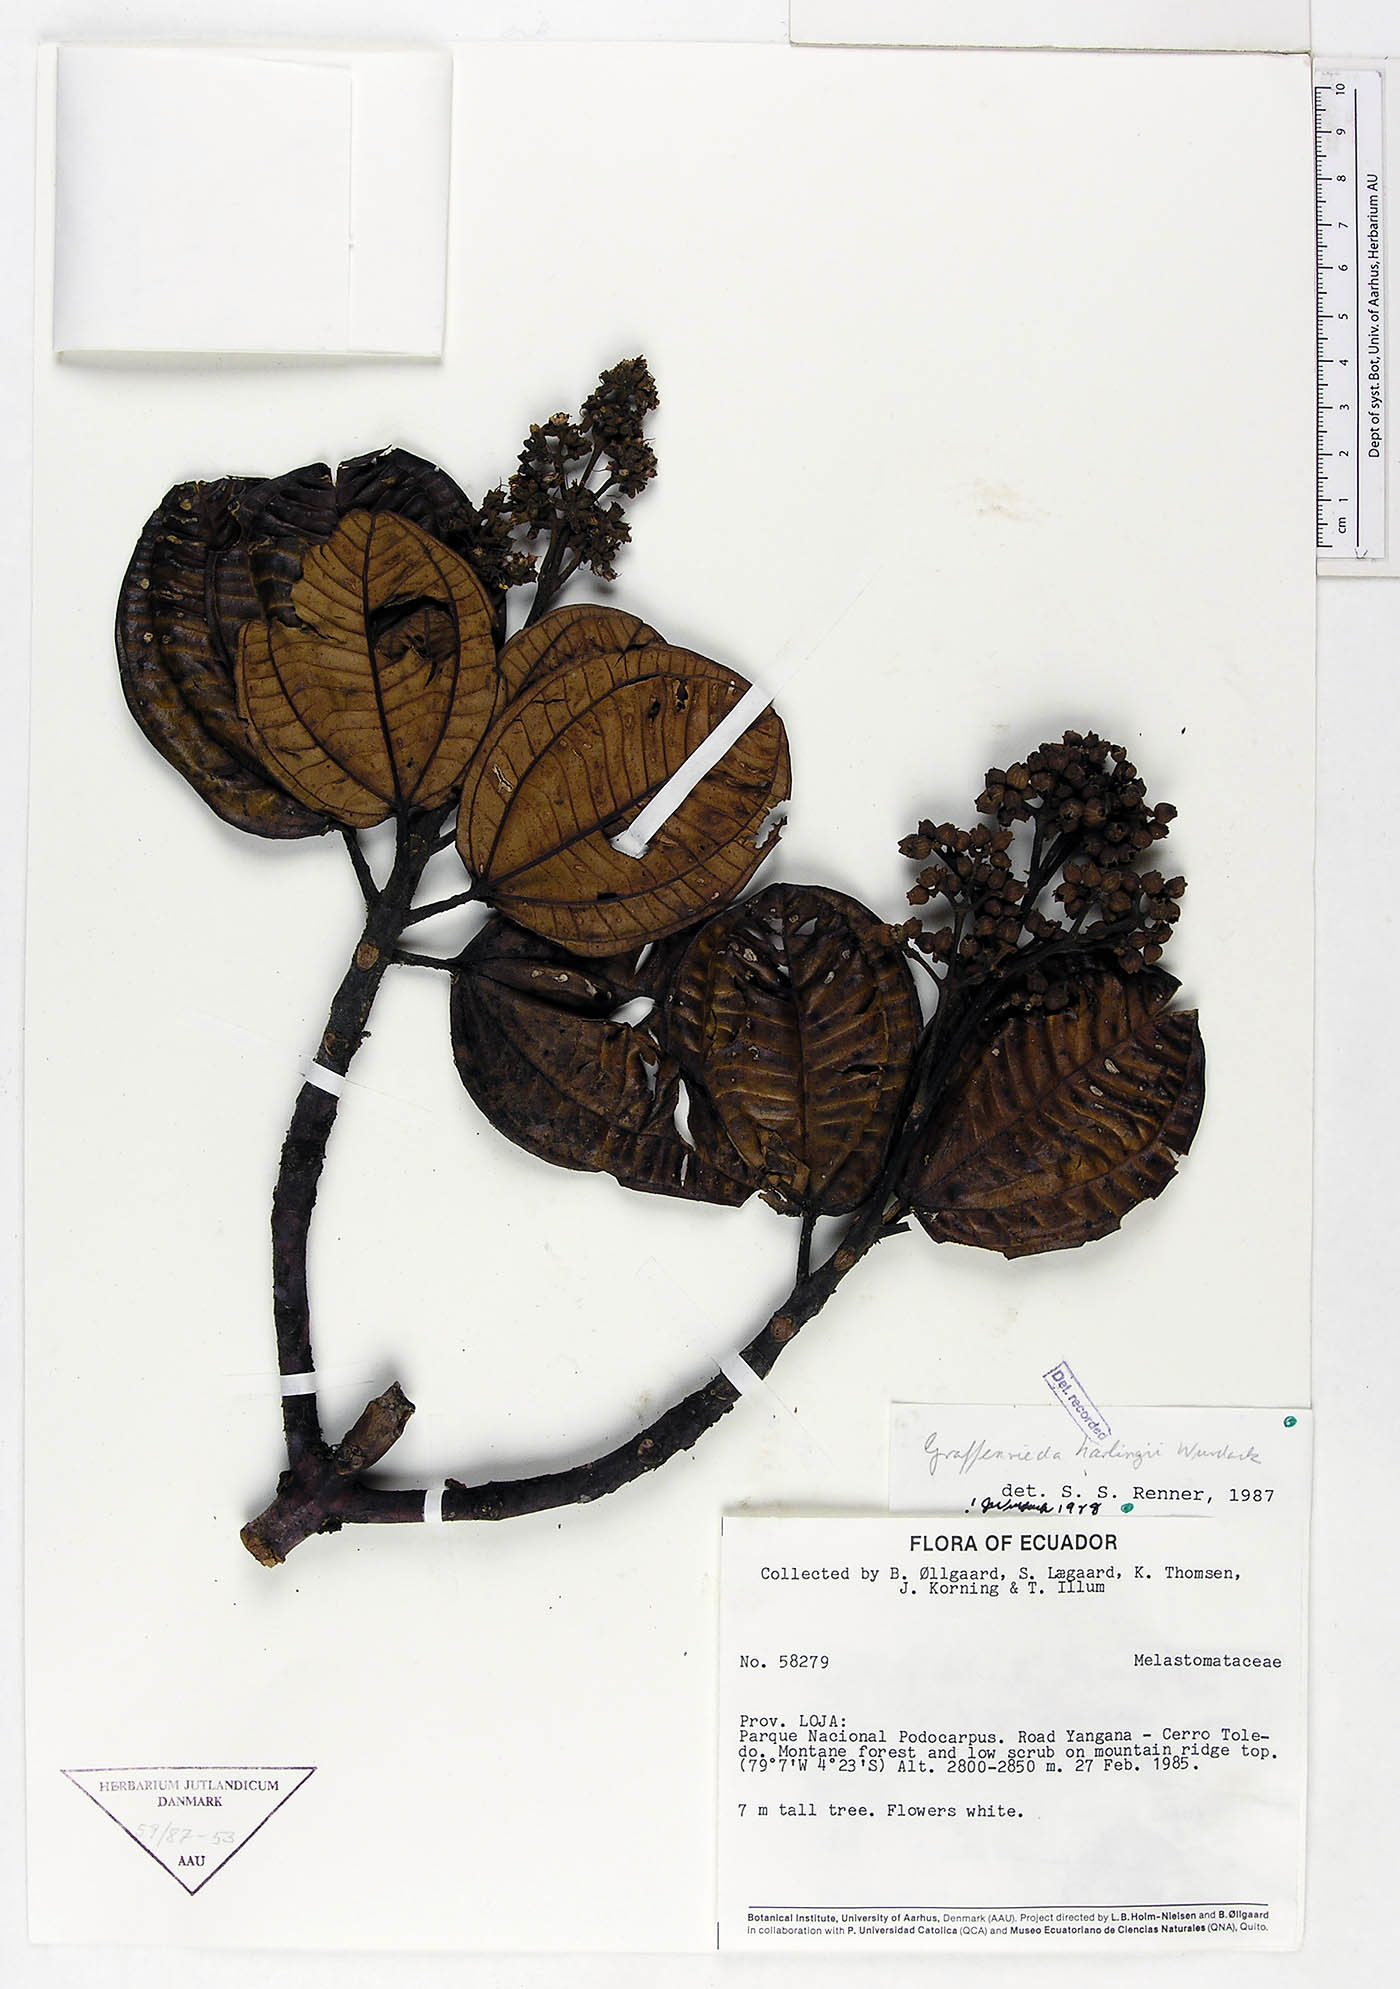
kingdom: Plantae
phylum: Tracheophyta
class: Magnoliopsida
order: Myrtales
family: Melastomataceae
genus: Graffenrieda
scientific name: Graffenrieda harlingii
